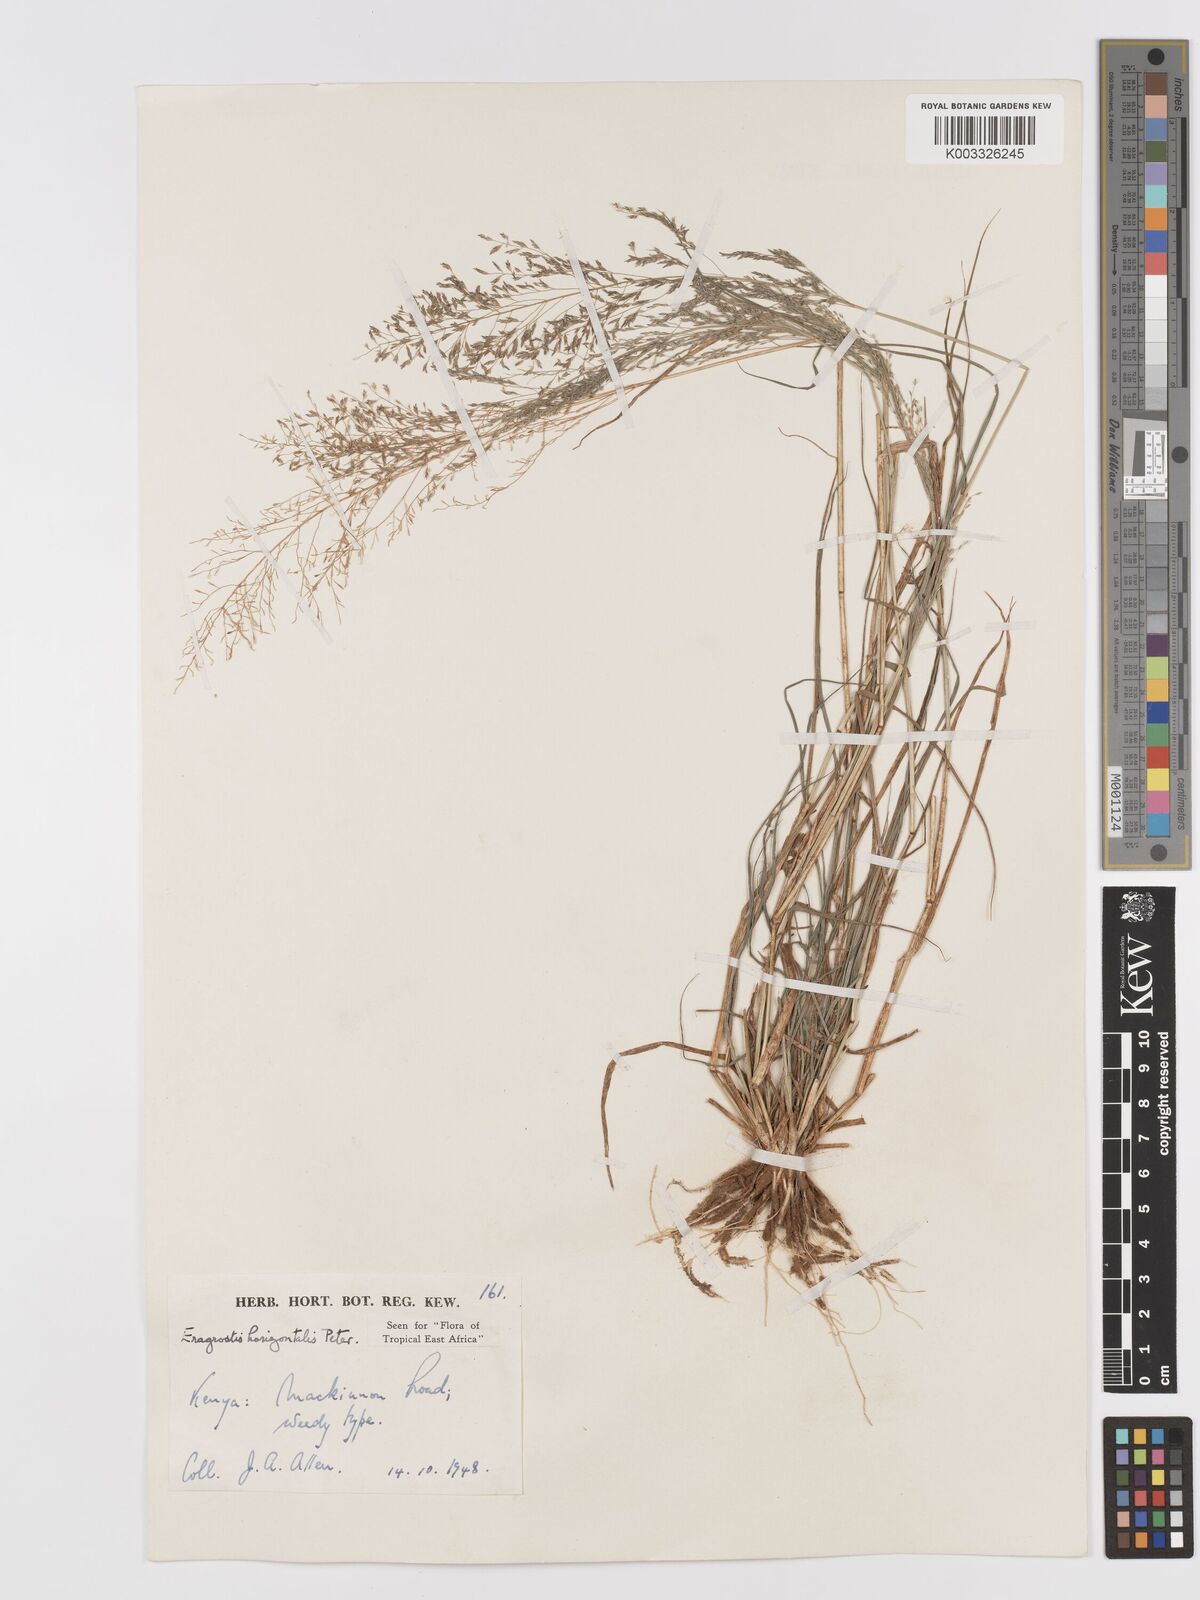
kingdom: Plantae
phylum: Tracheophyta
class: Liliopsida
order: Poales
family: Poaceae
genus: Eragrostis
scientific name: Eragrostis cylindriflora
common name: Cylinderflower lovegrass
